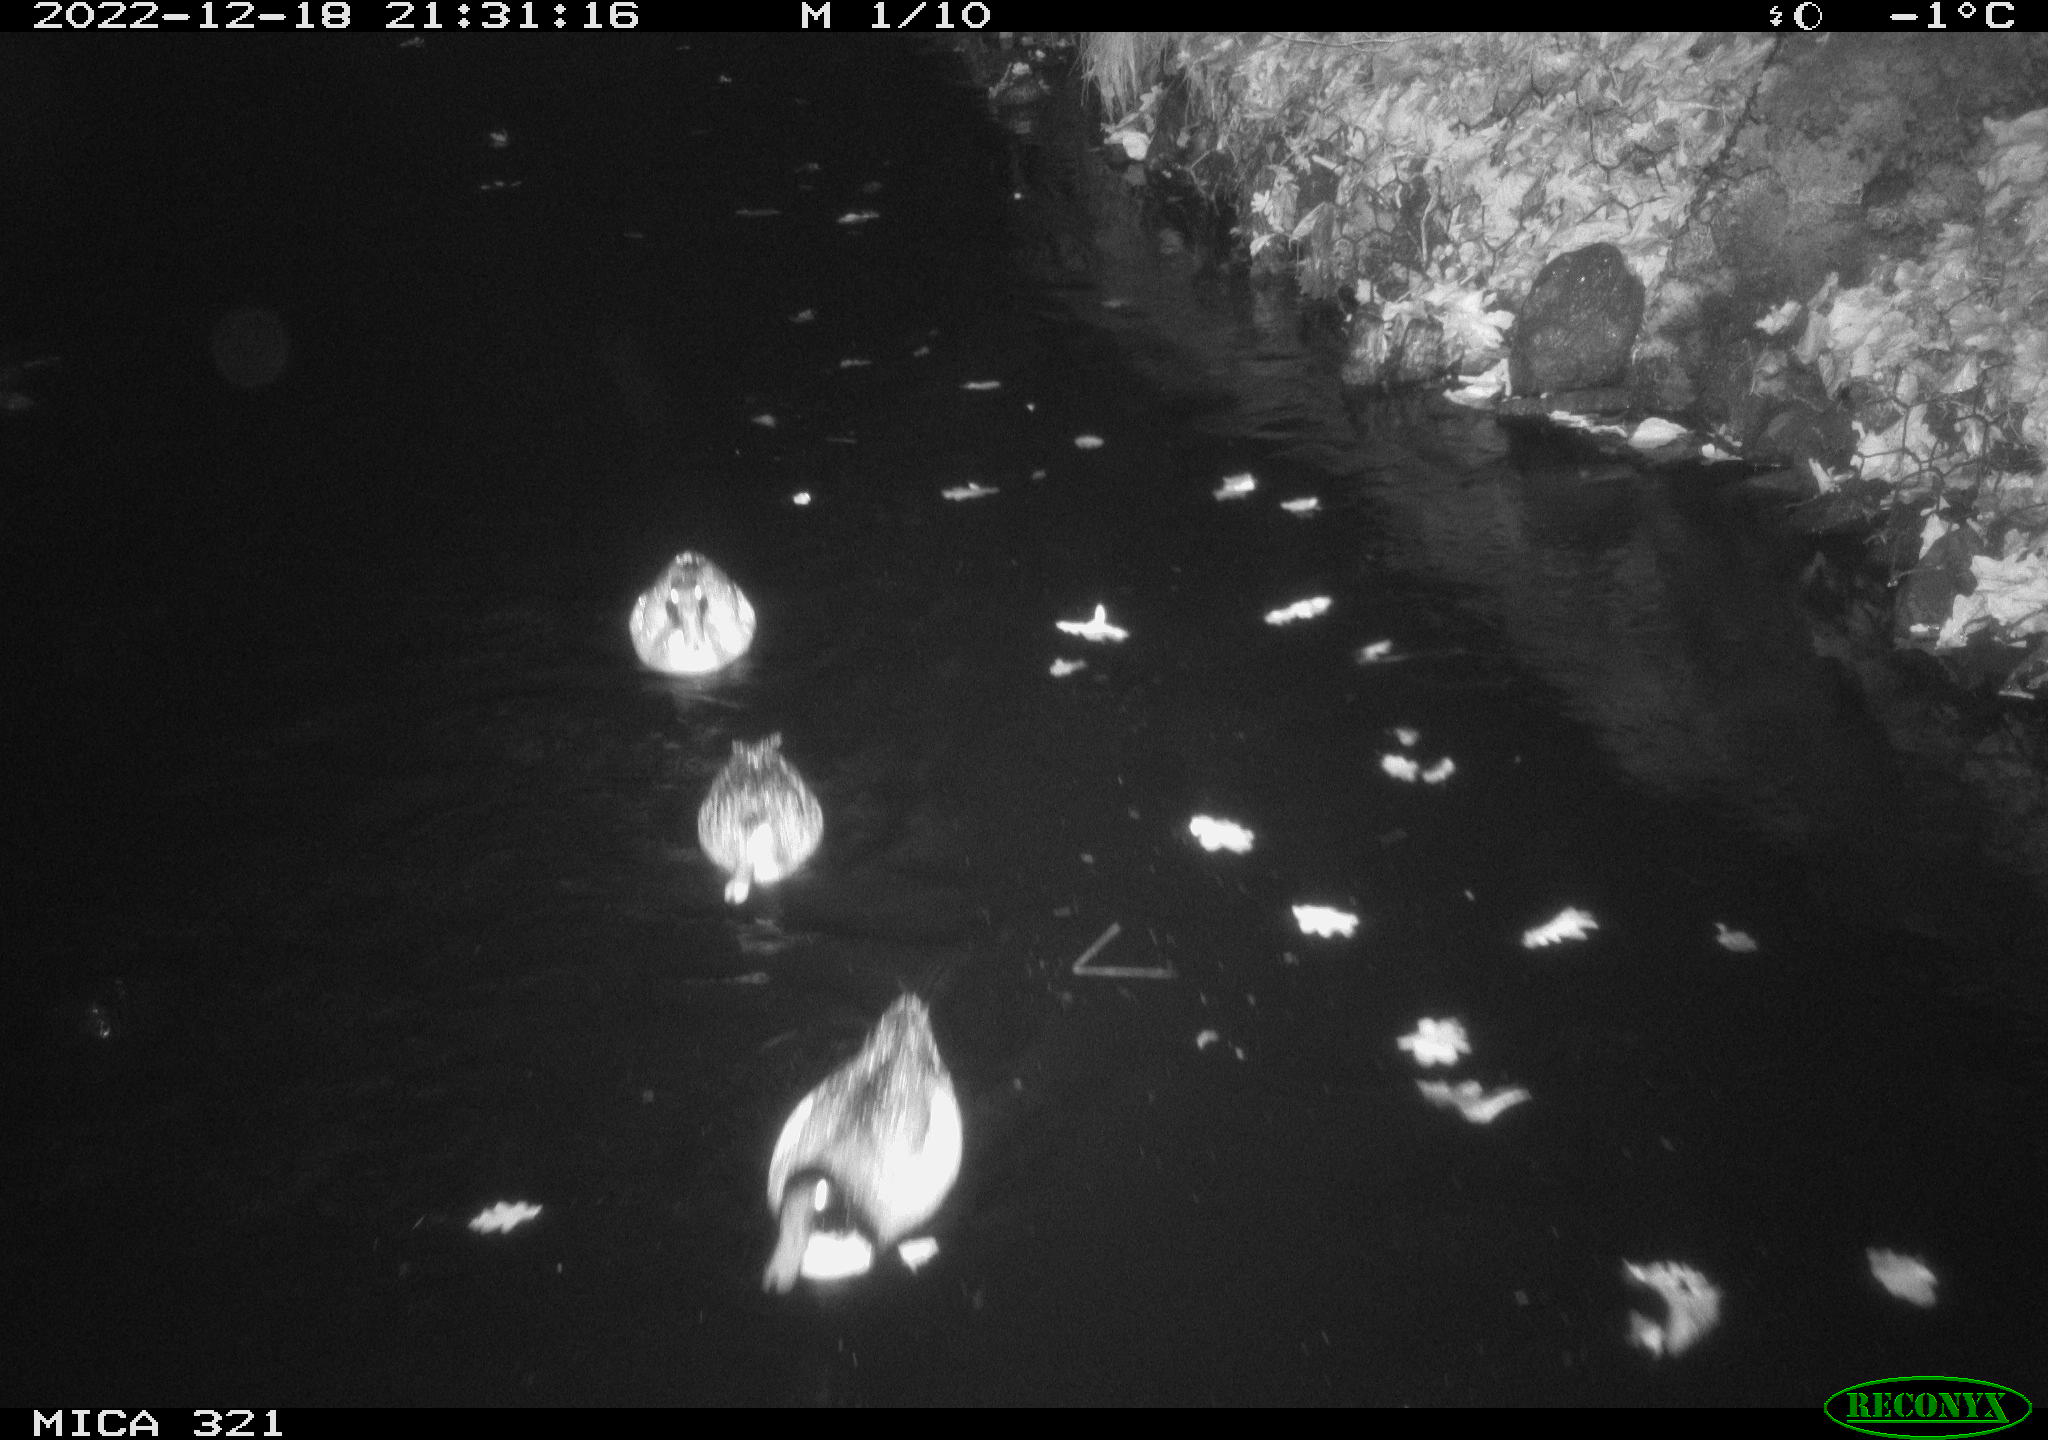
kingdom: Animalia
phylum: Chordata
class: Aves
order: Anseriformes
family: Anatidae
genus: Anas
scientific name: Anas
